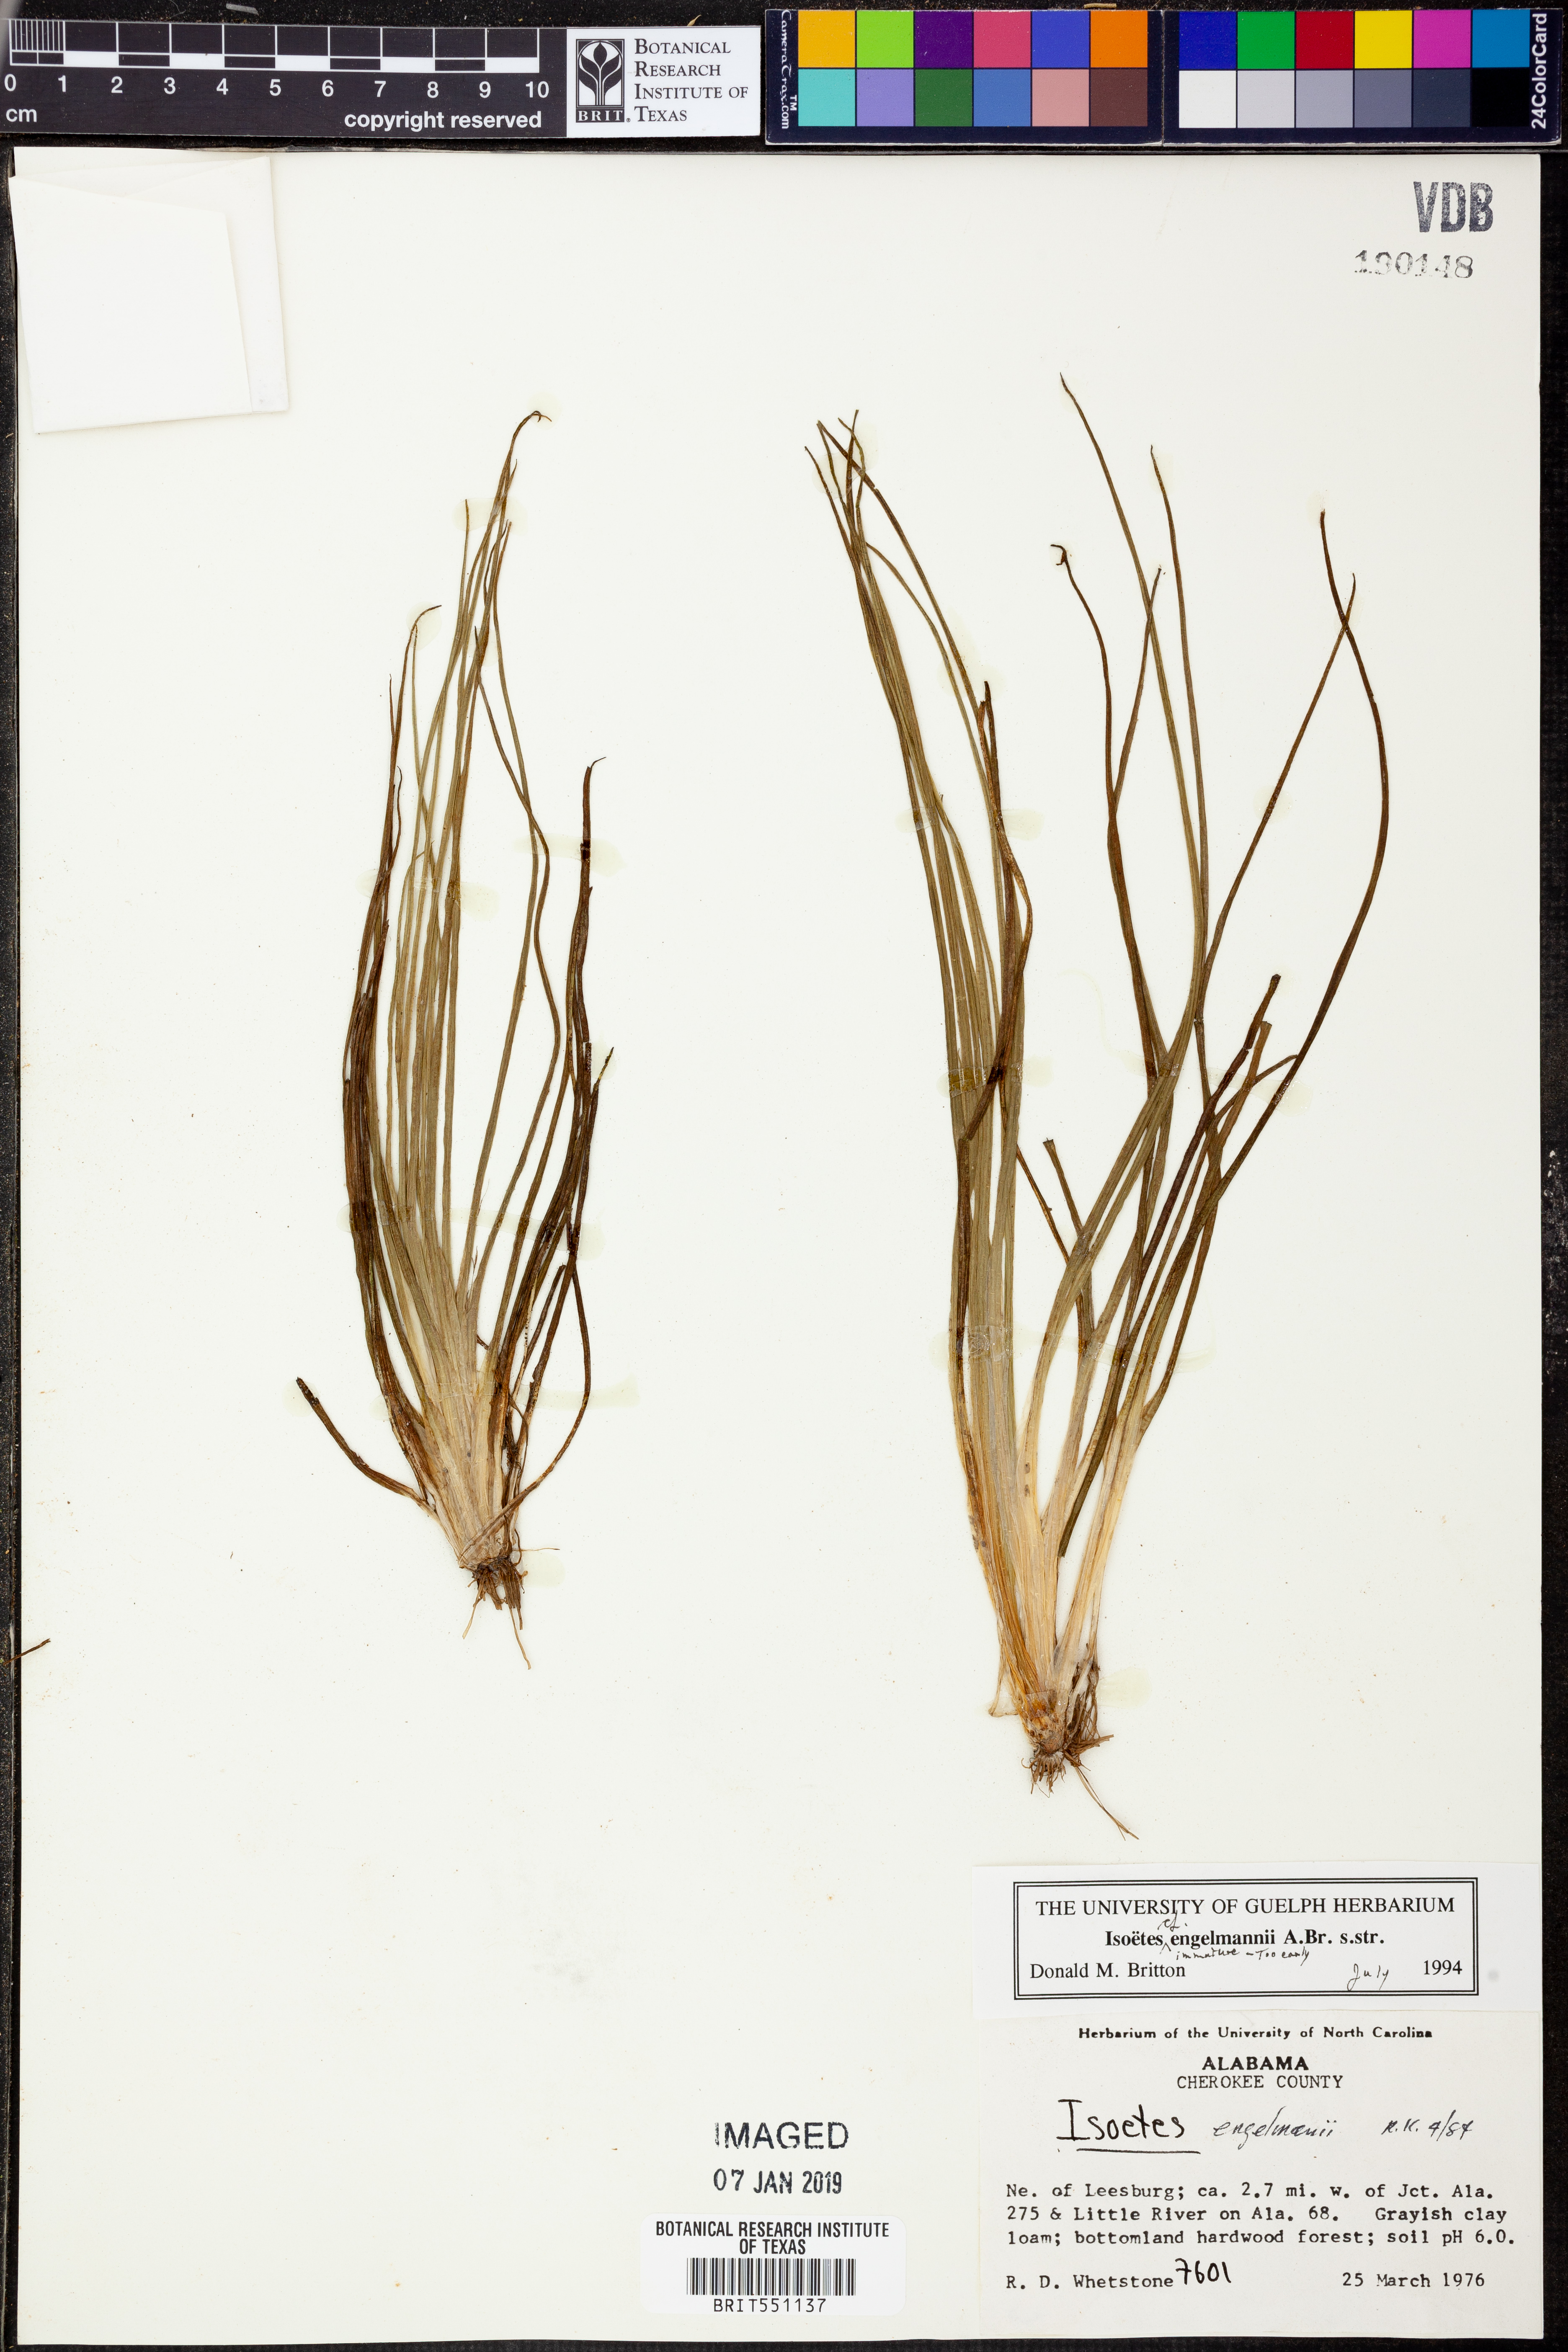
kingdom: Plantae
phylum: Tracheophyta
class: Lycopodiopsida
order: Isoetales
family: Isoetaceae
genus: Isoetes
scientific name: Isoetes engelmannii
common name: Engelmann's quillwort
